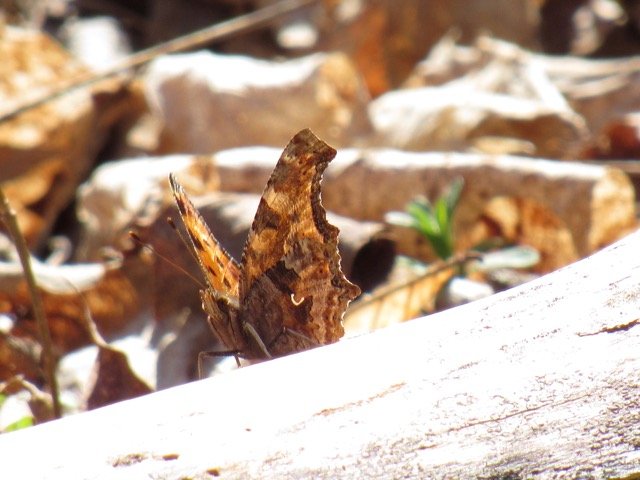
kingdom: Animalia
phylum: Arthropoda
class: Insecta
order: Lepidoptera
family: Nymphalidae
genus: Polygonia
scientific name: Polygonia comma
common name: Eastern Comma
